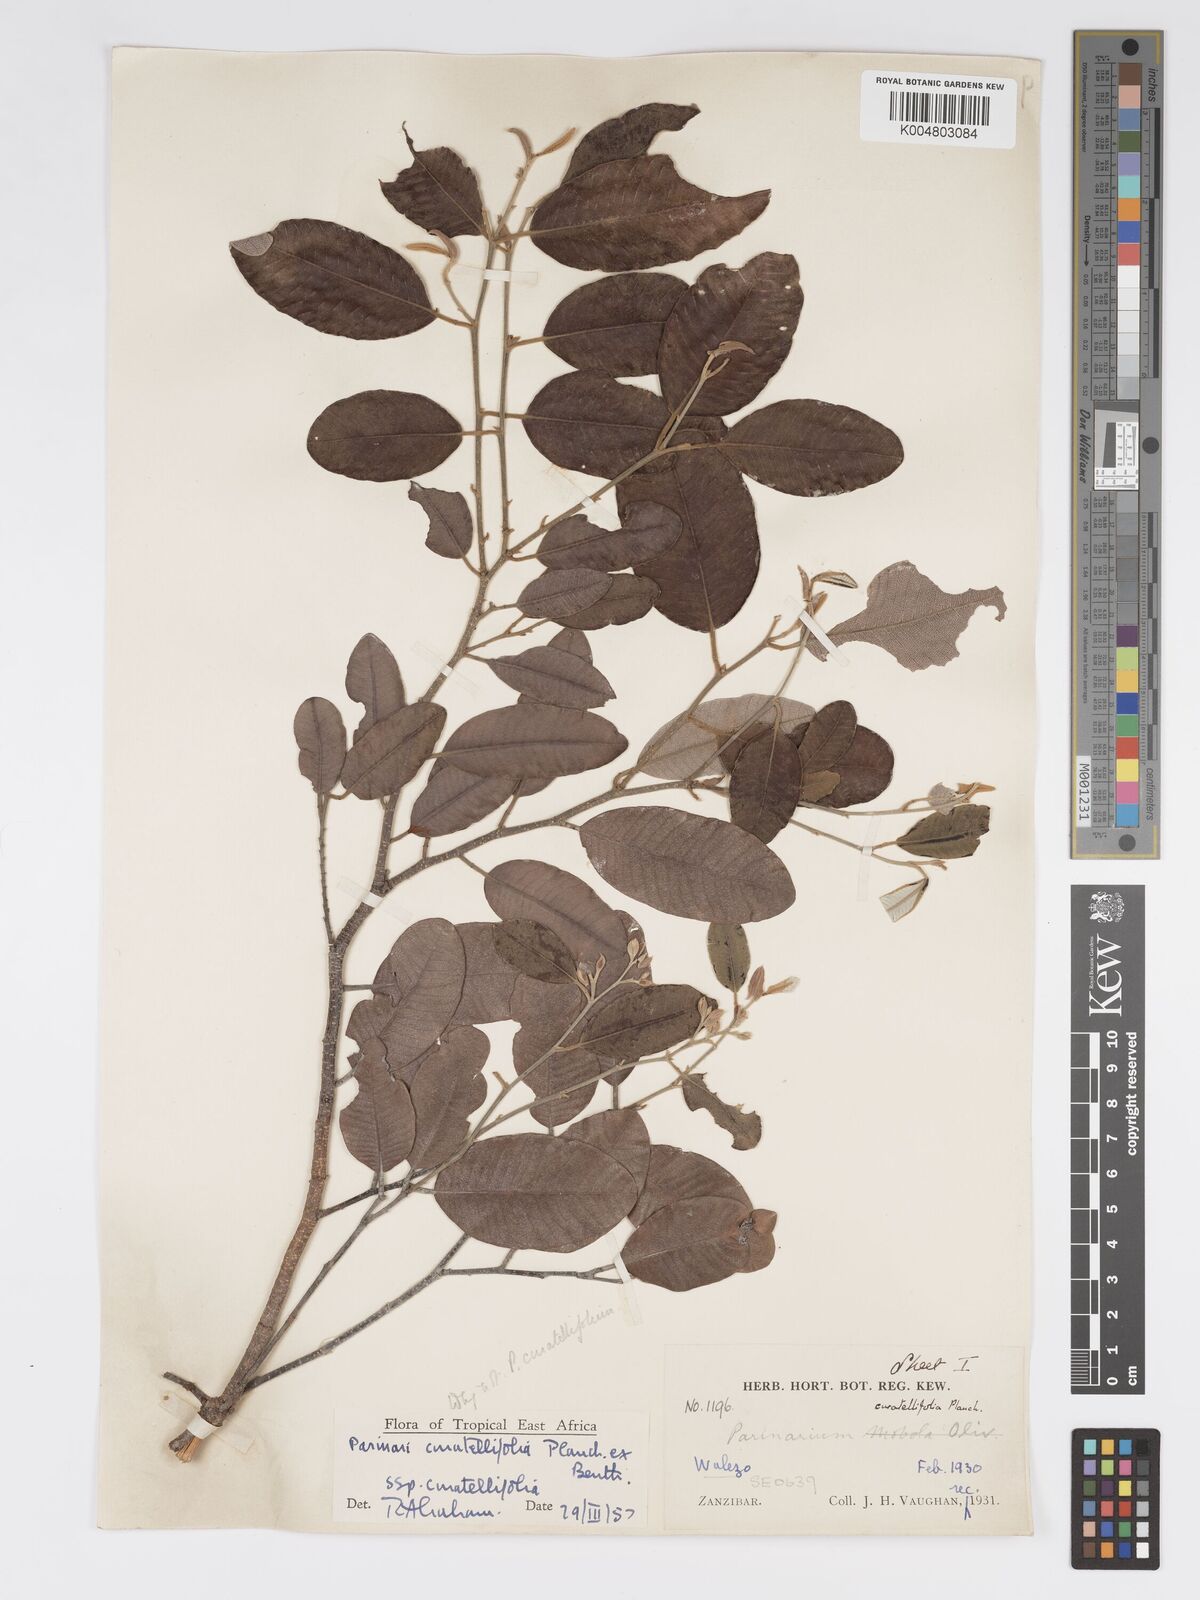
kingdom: Plantae
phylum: Tracheophyta
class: Magnoliopsida
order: Malpighiales
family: Chrysobalanaceae
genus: Parinari
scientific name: Parinari curatellifolia
